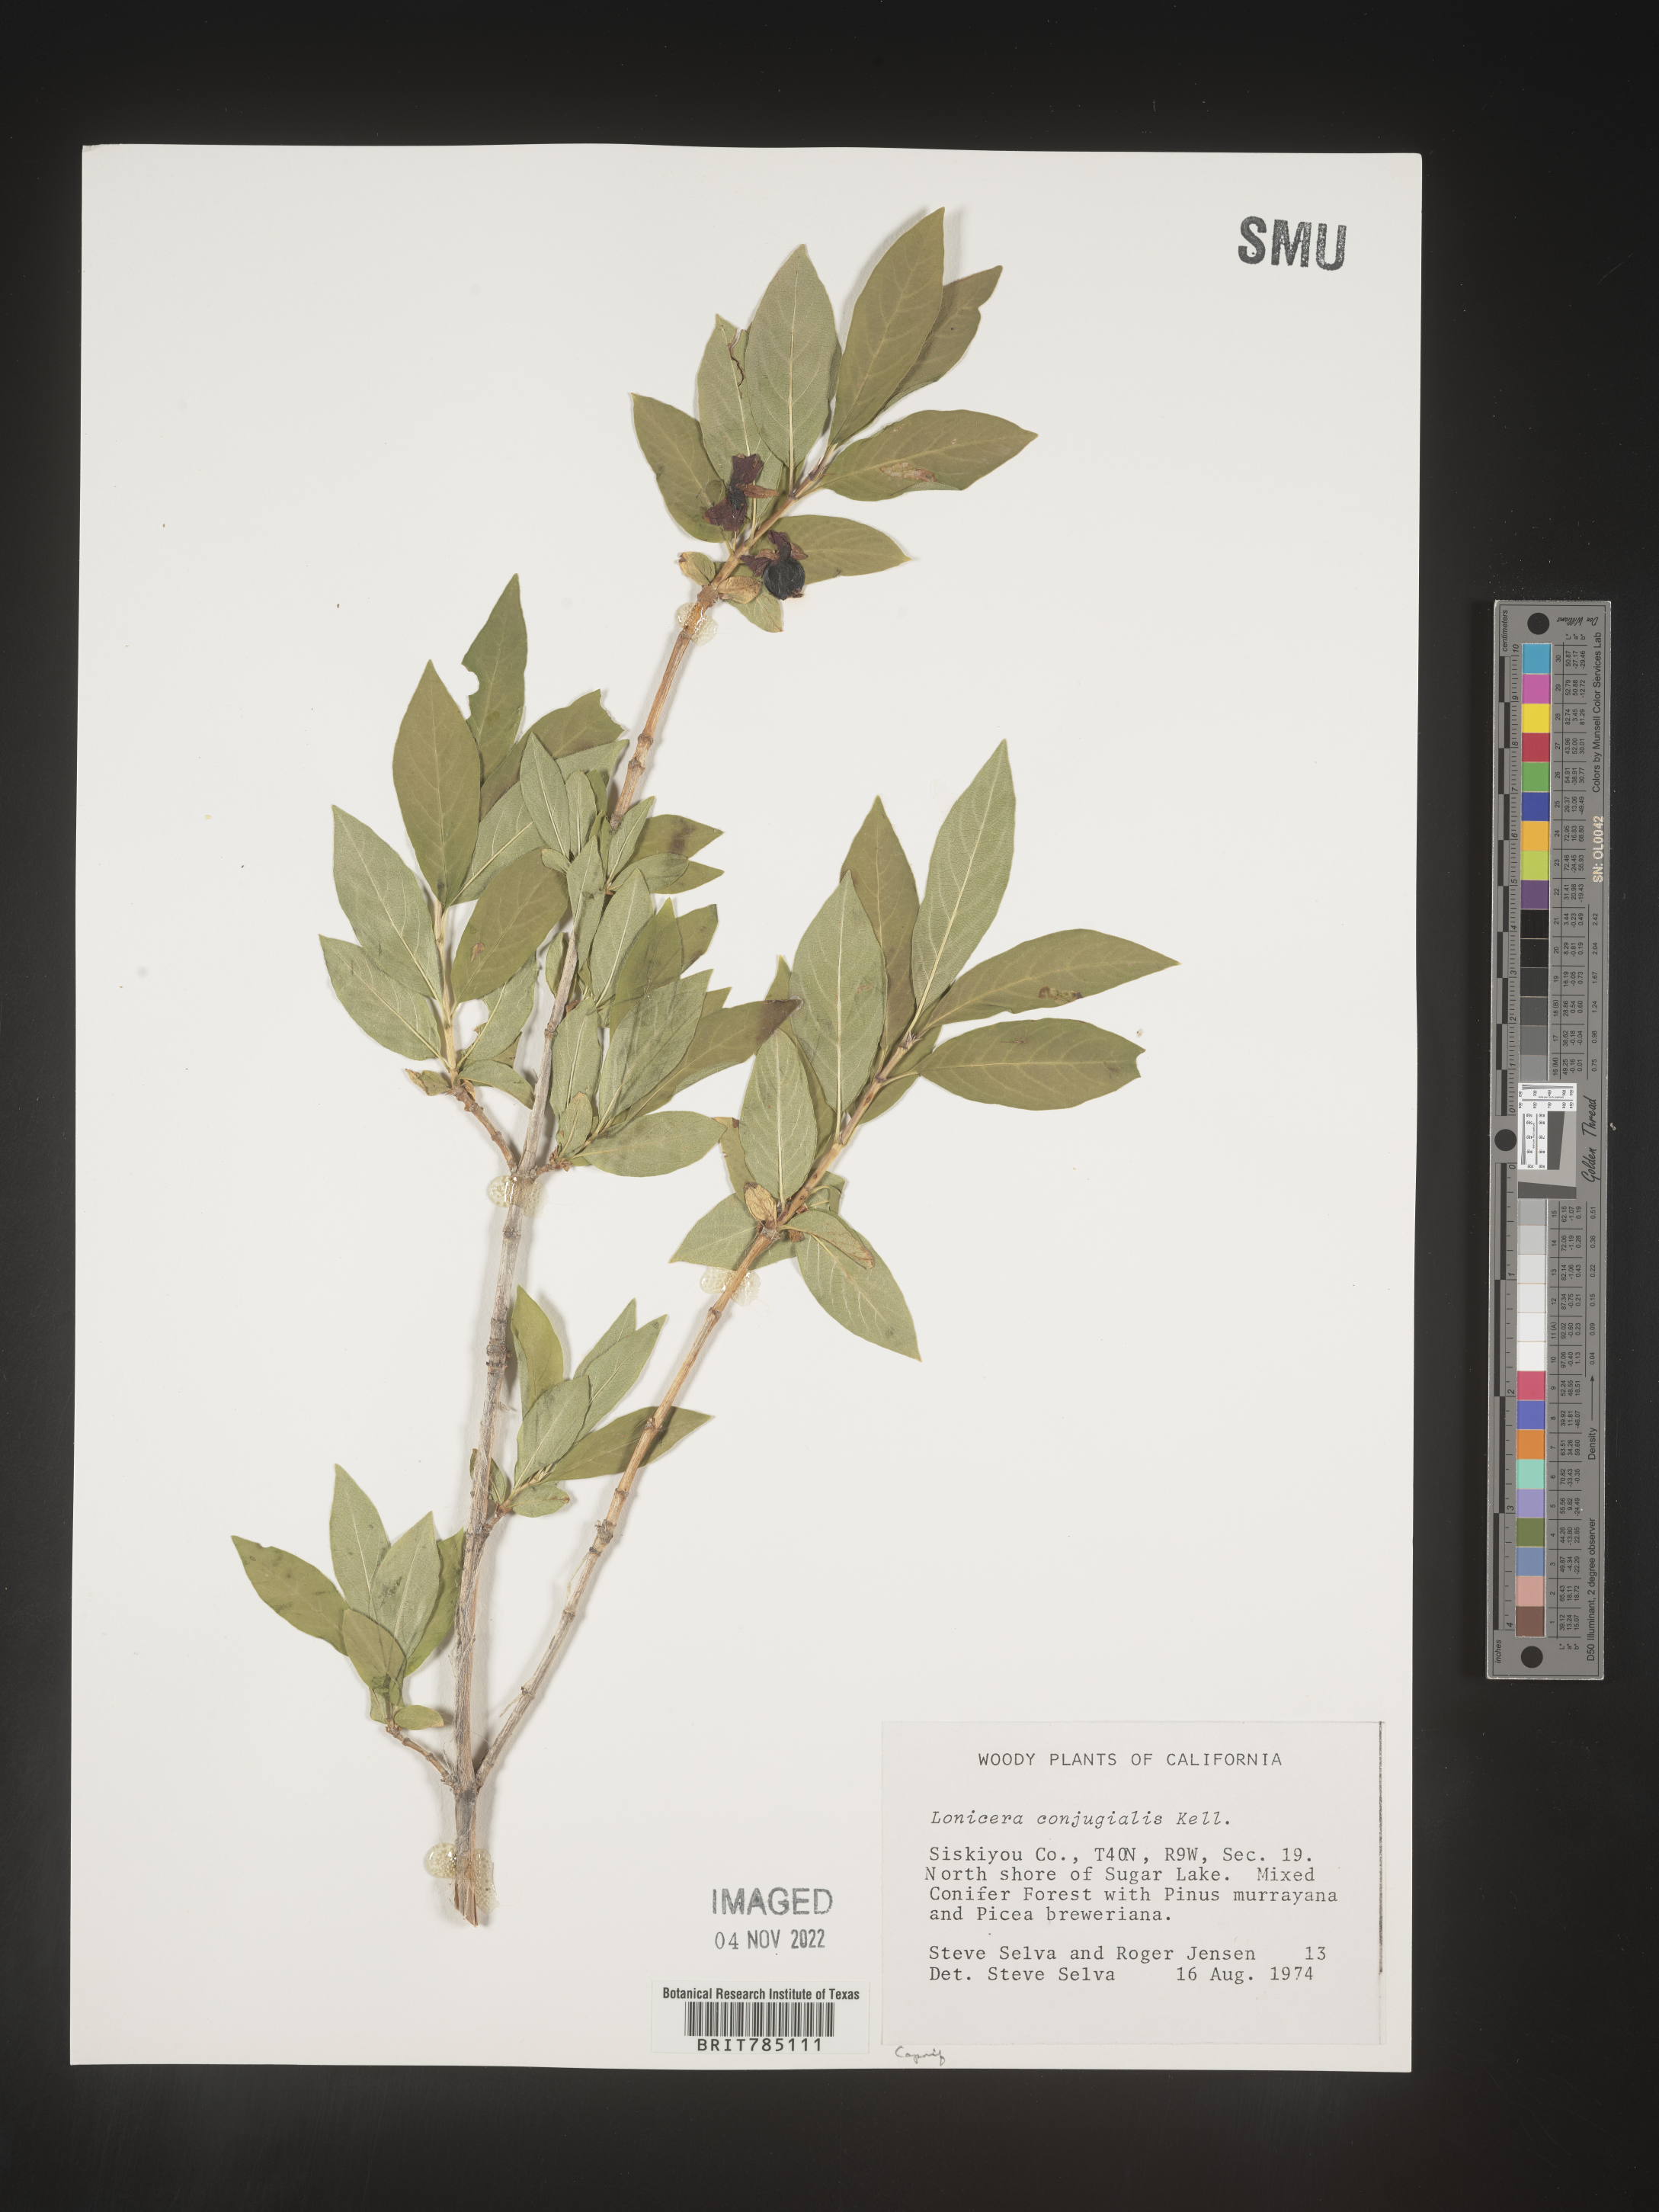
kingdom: Plantae
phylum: Tracheophyta
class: Magnoliopsida
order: Dipsacales
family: Caprifoliaceae
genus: Lonicera
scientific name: Lonicera
